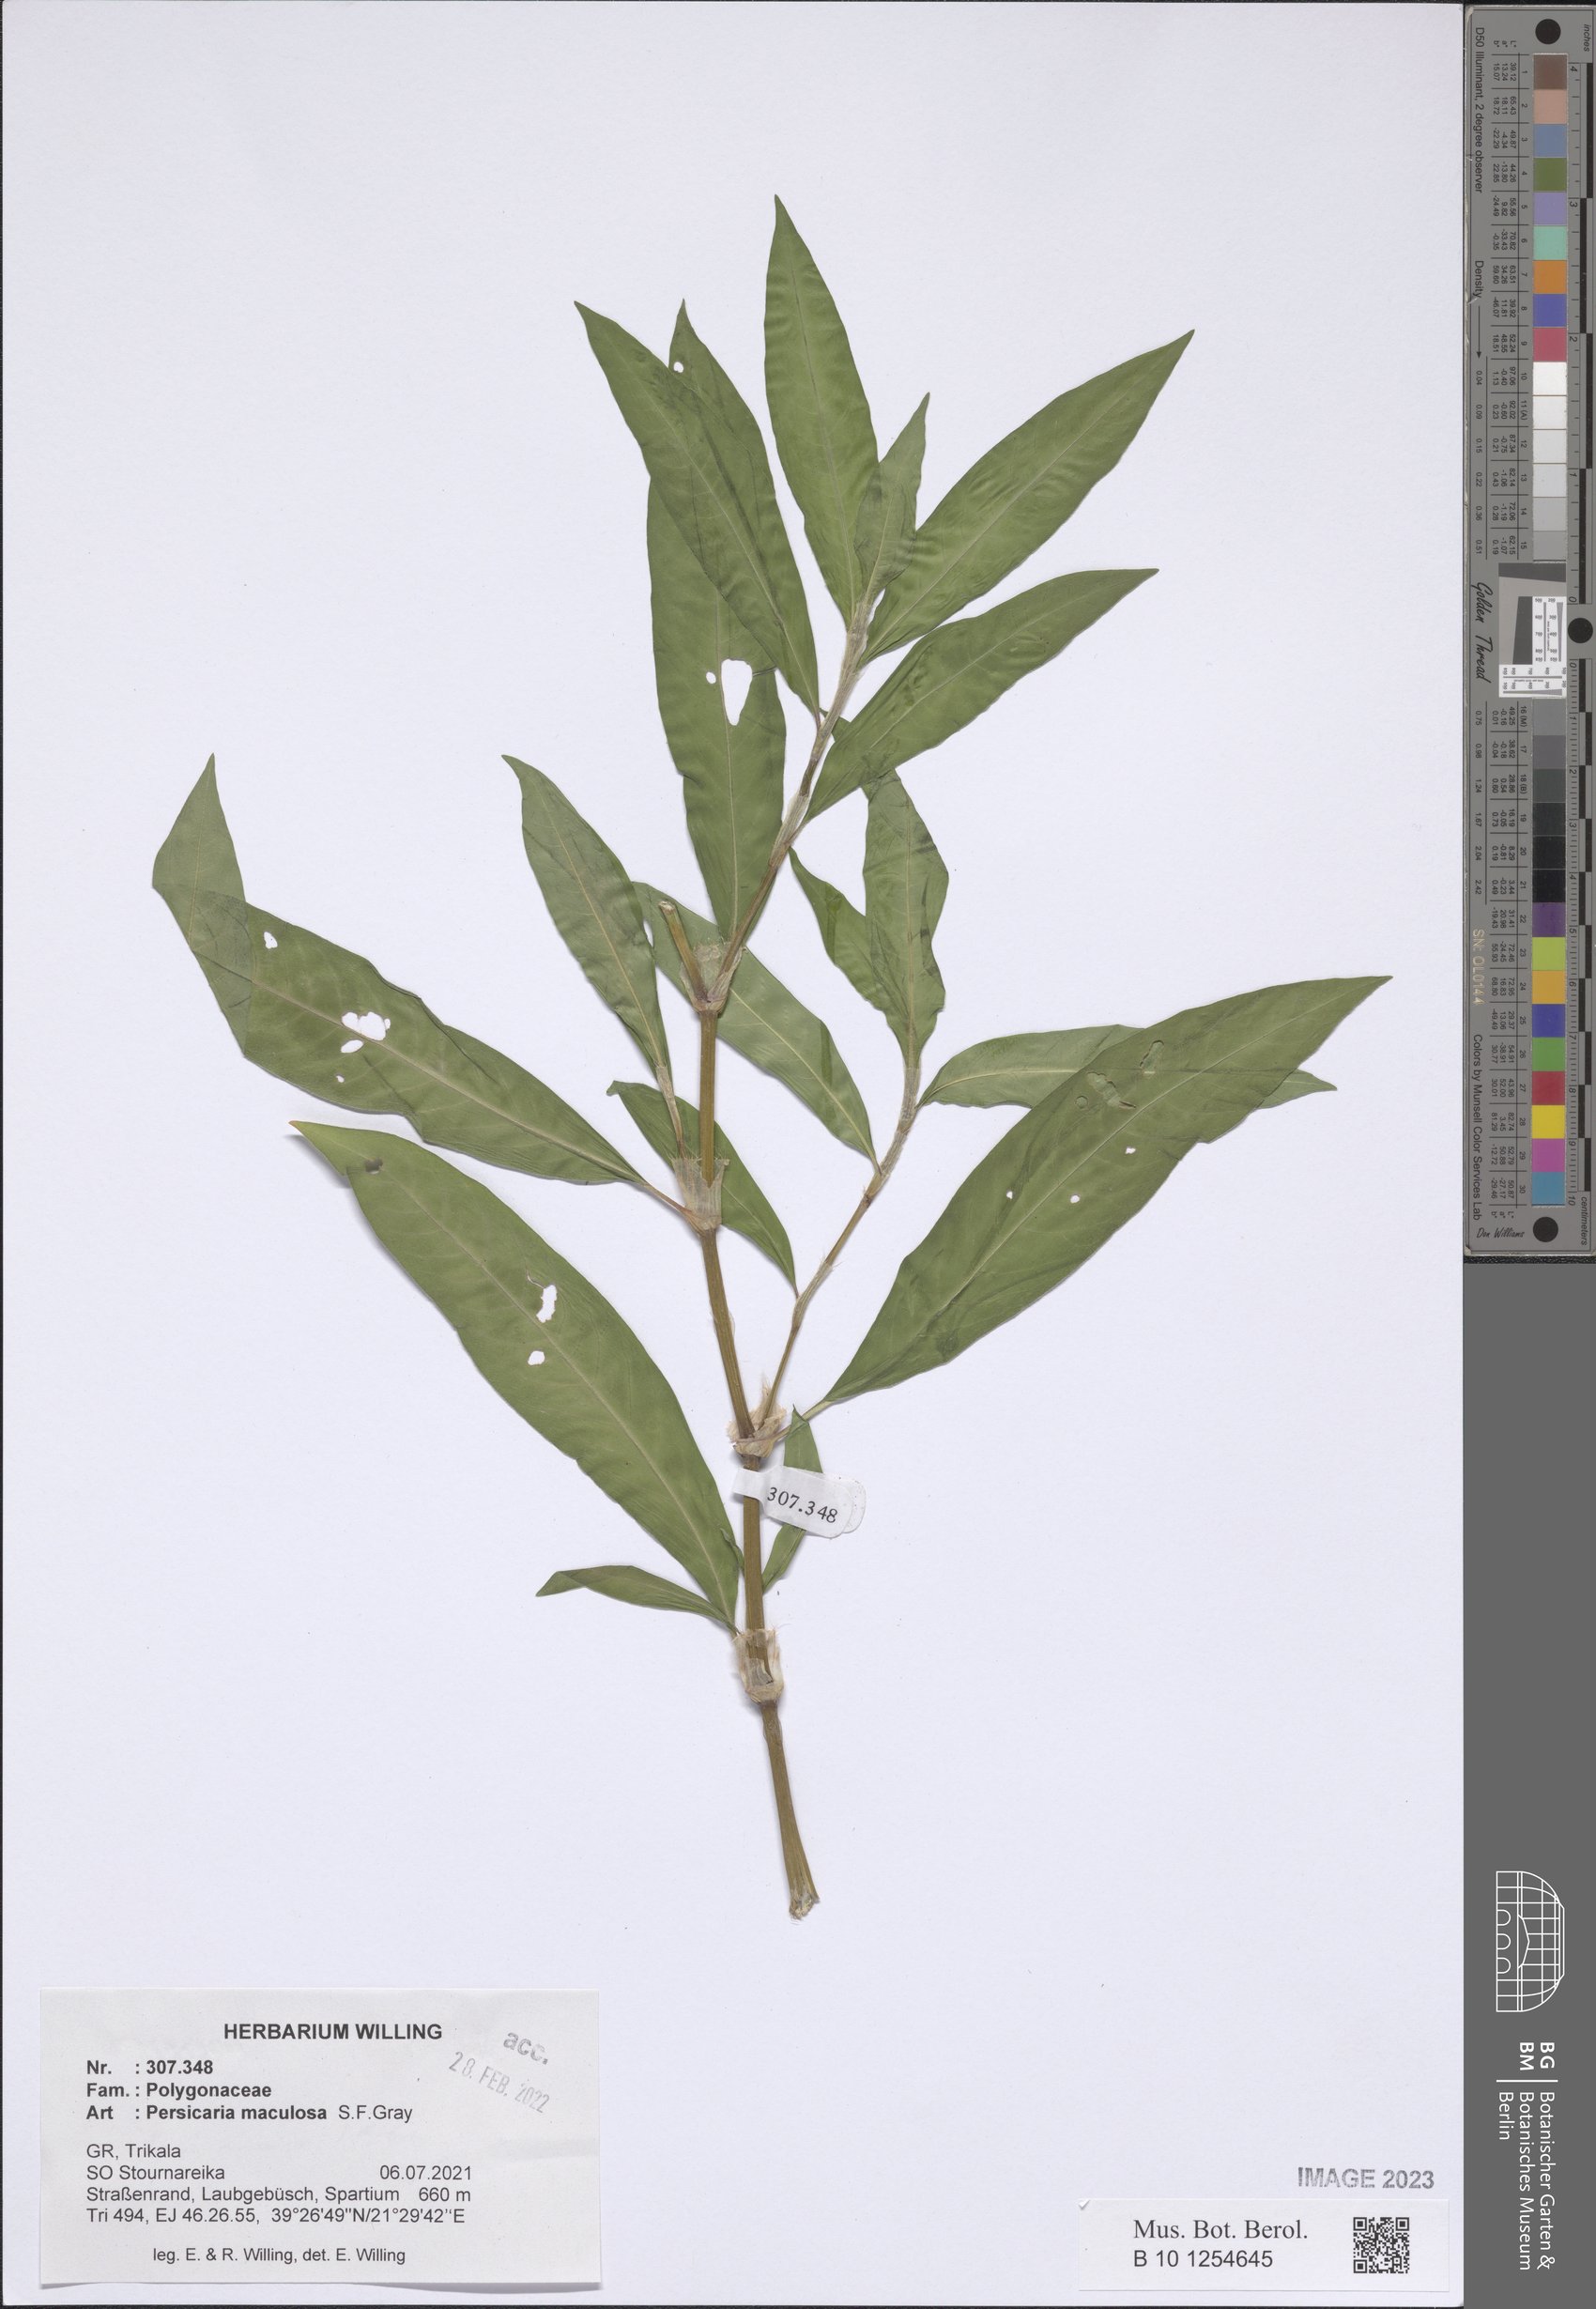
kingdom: Plantae
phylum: Tracheophyta
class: Magnoliopsida
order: Caryophyllales
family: Polygonaceae
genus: Persicaria
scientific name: Persicaria maculosa
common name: Redshank
